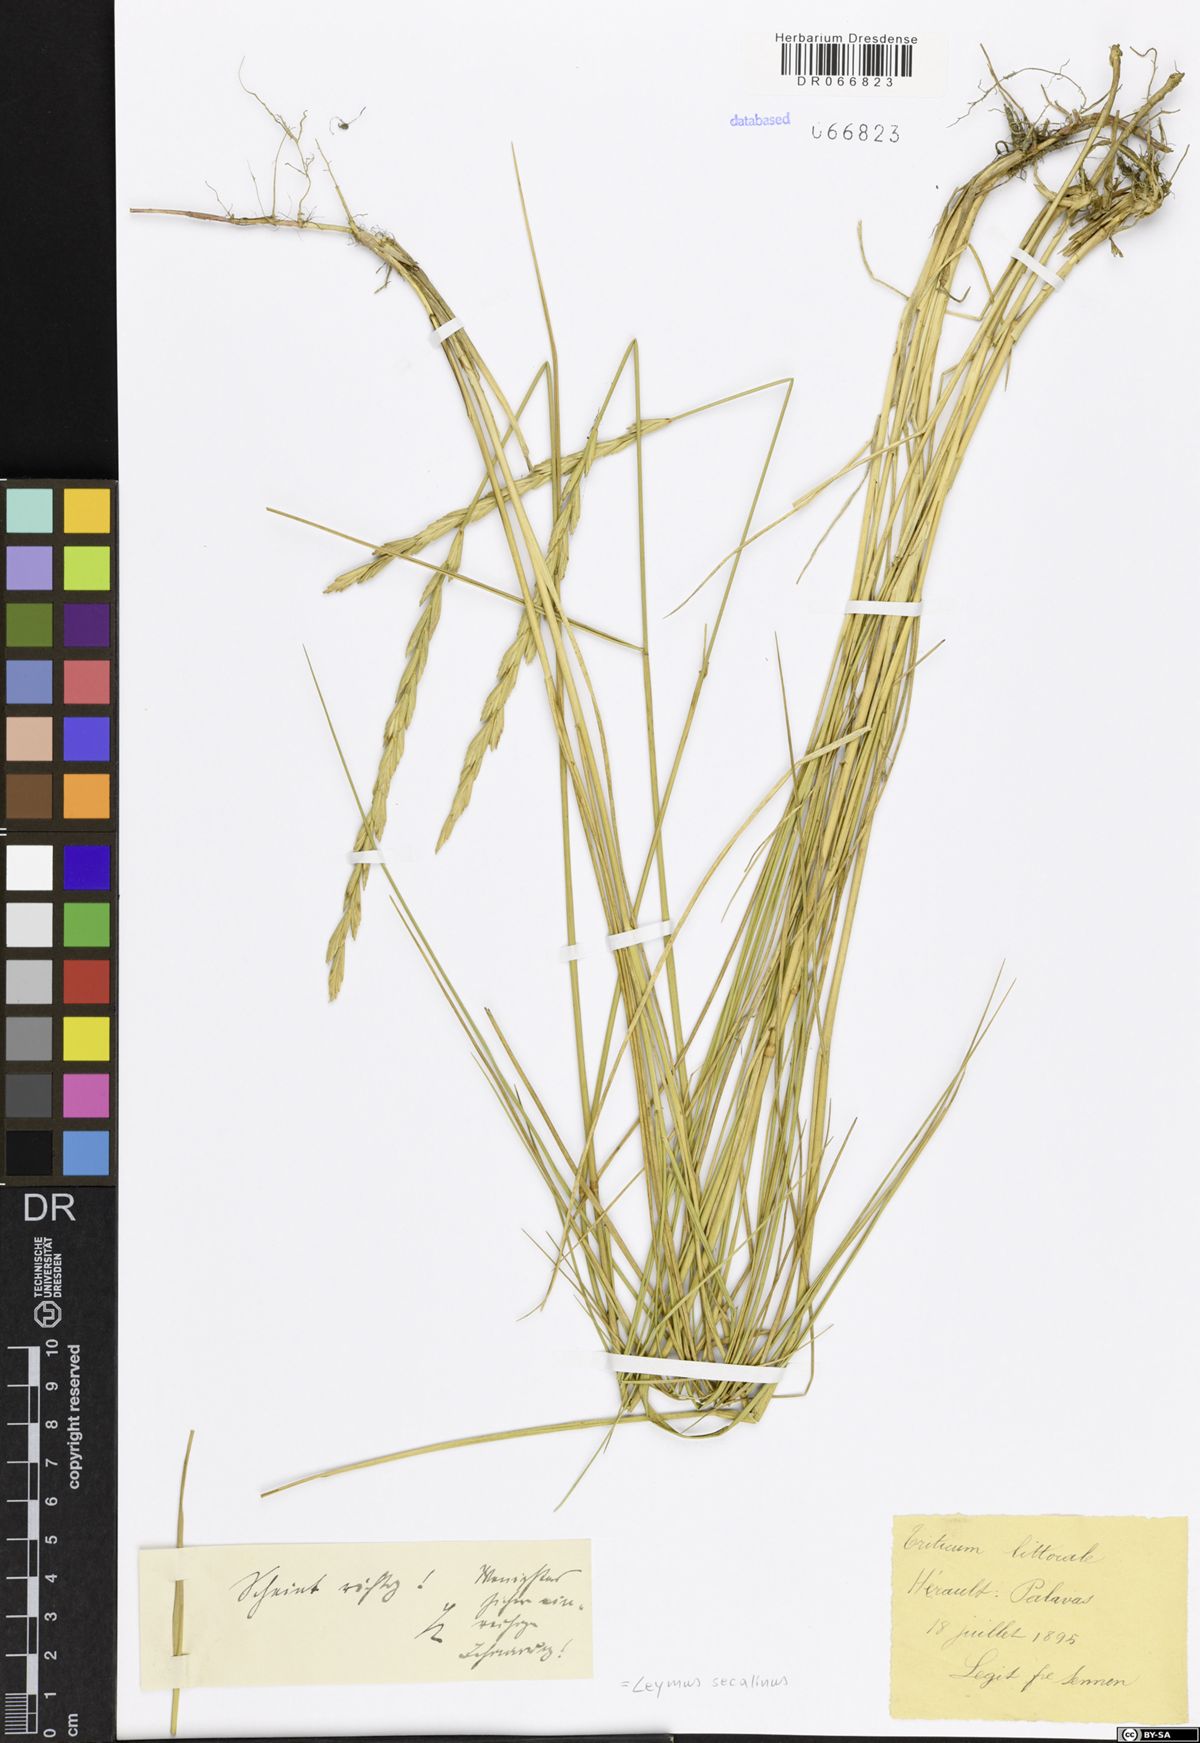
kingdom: Plantae
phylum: Tracheophyta
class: Liliopsida
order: Poales
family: Poaceae
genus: Leymus
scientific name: Leymus secalinus
